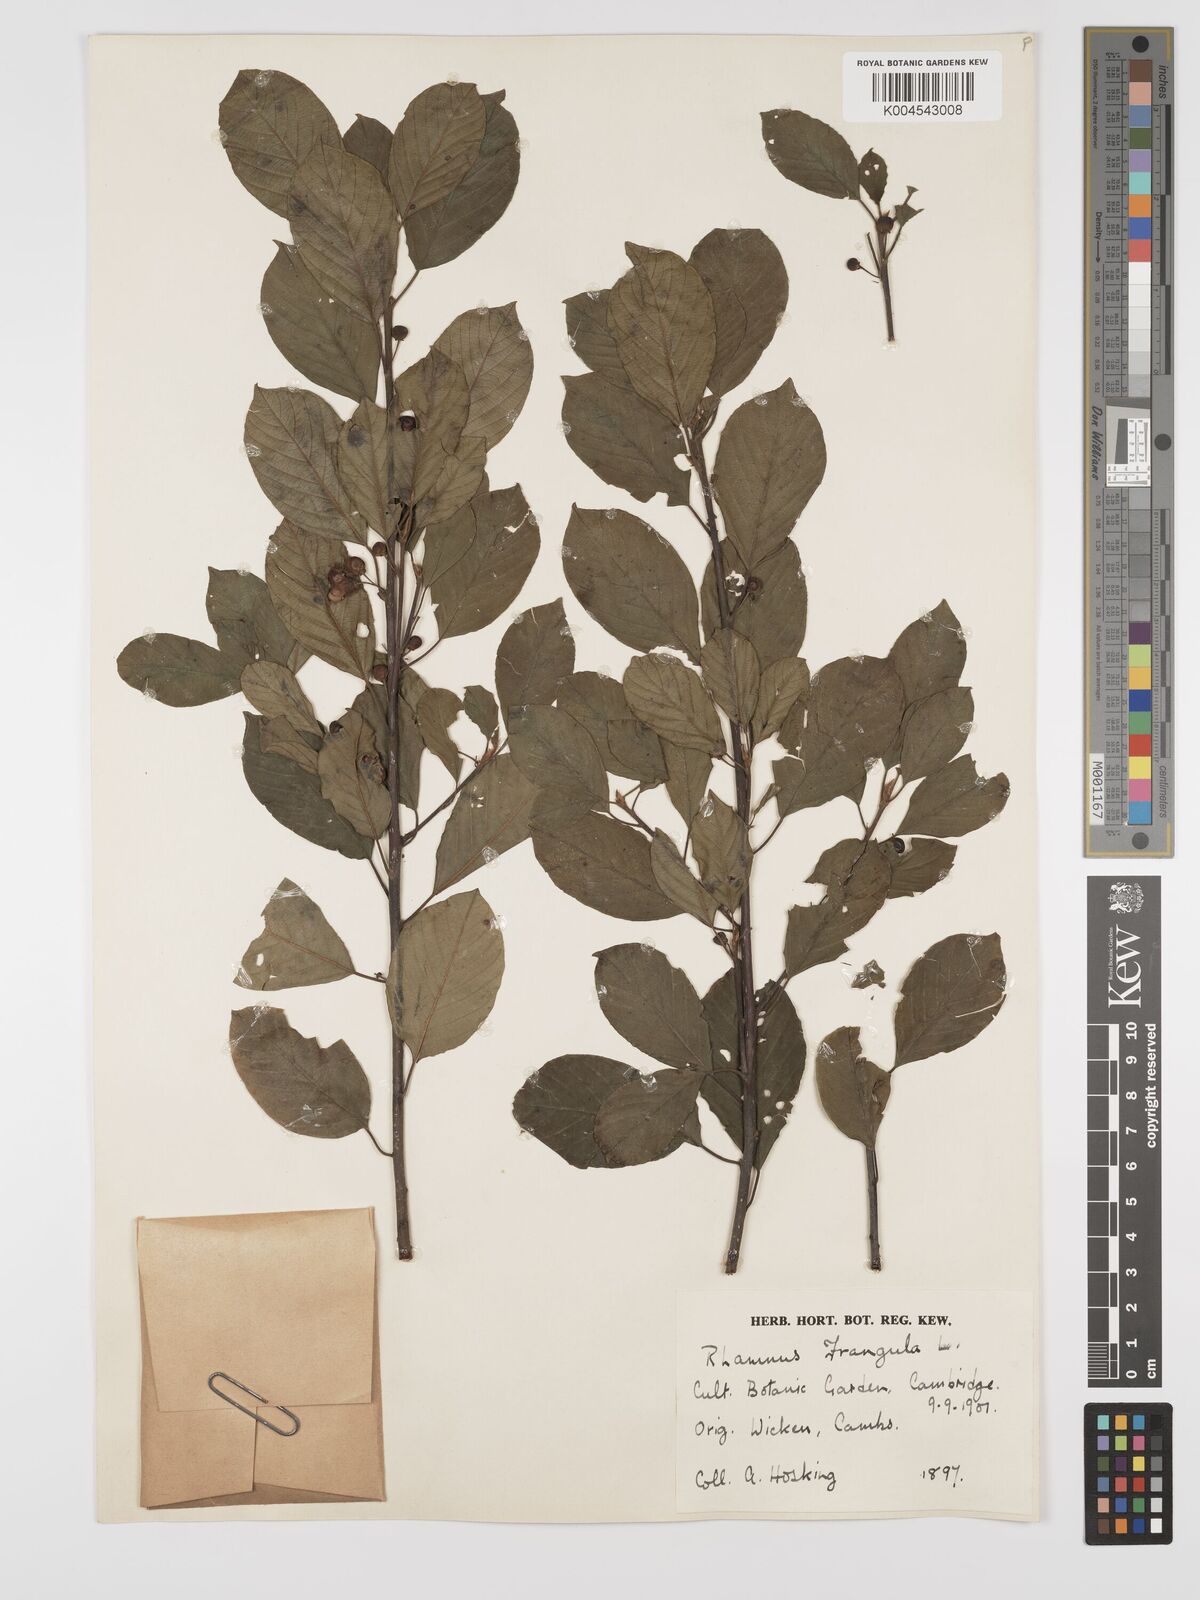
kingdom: Plantae
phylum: Tracheophyta
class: Magnoliopsida
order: Rosales
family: Rhamnaceae
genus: Frangula
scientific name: Frangula alnus
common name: Alder buckthorn
